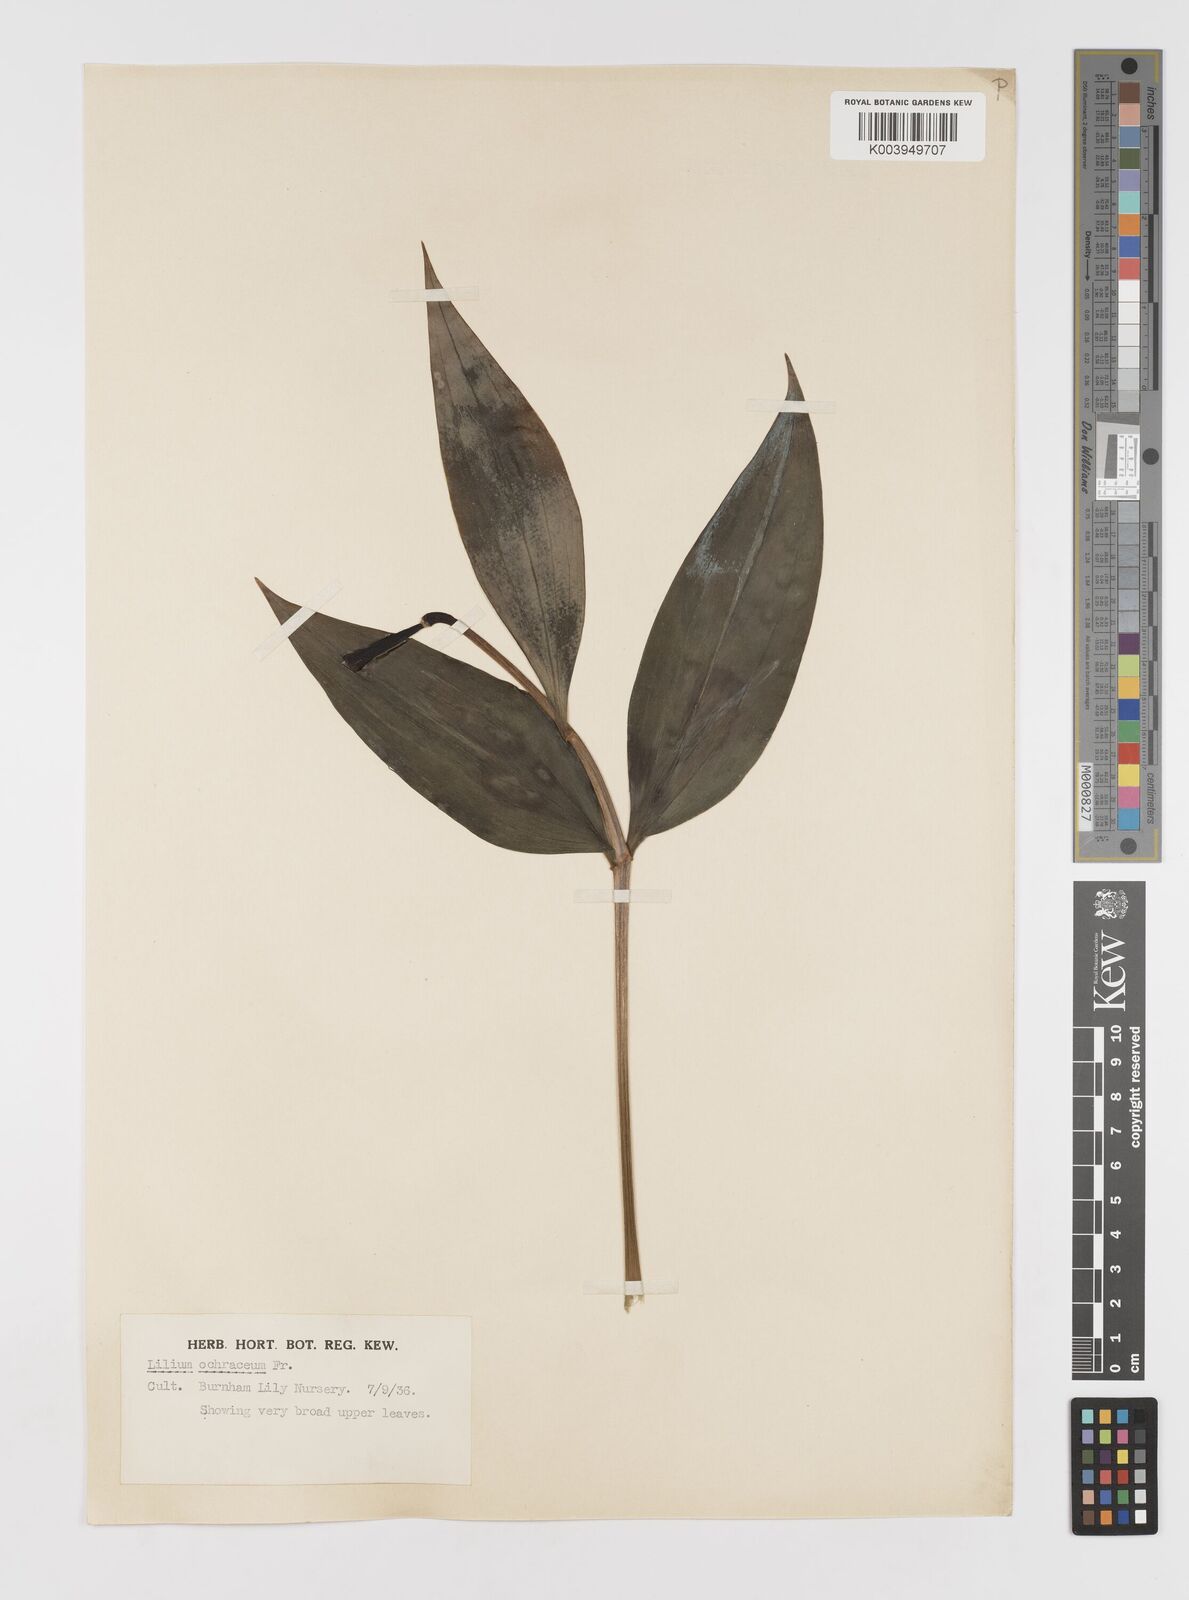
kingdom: Plantae
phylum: Tracheophyta
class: Liliopsida
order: Liliales
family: Liliaceae
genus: Lilium
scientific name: Lilium primulinum
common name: Ochre lily
